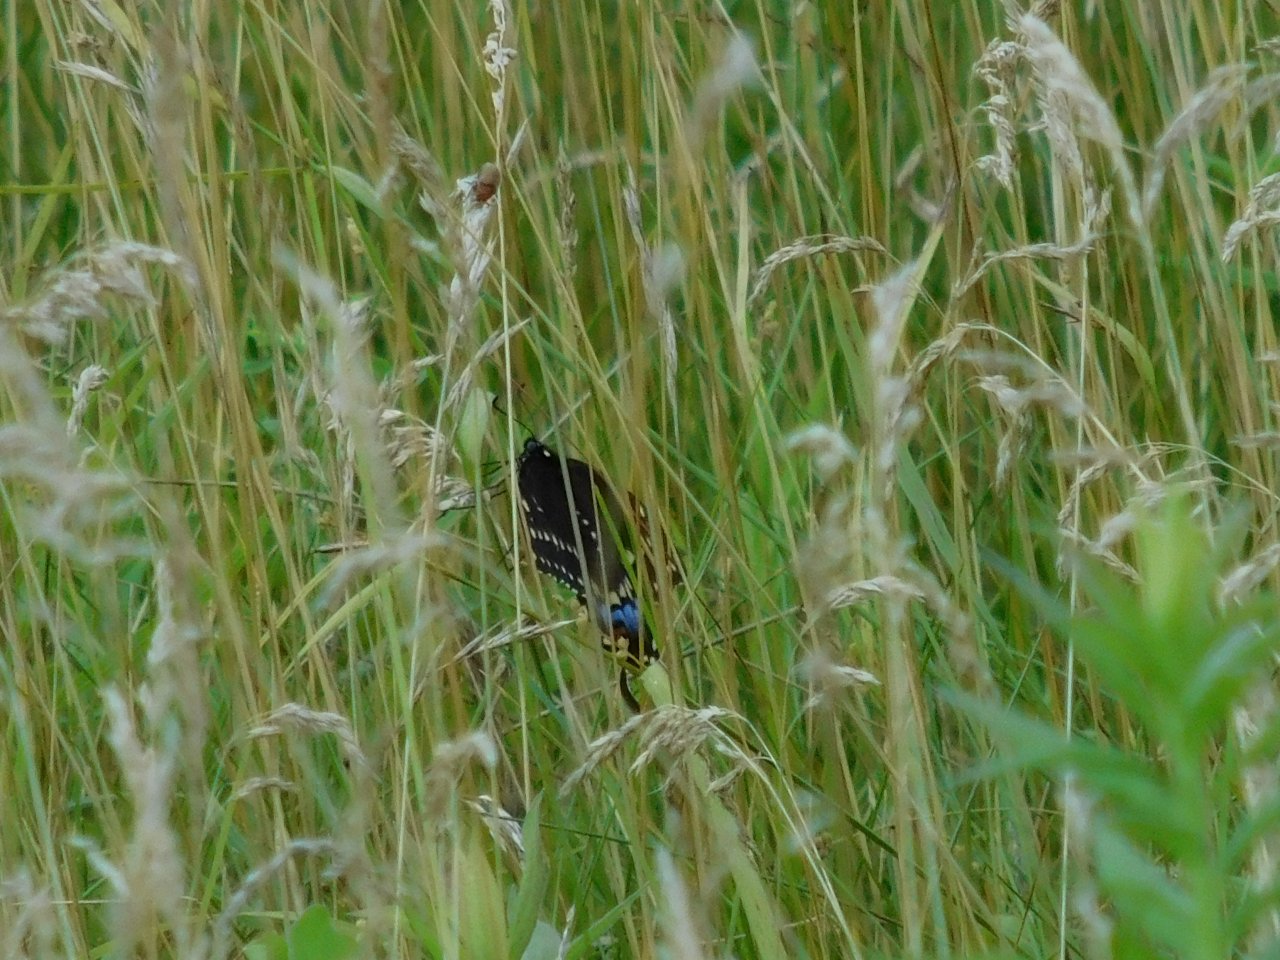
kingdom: Animalia
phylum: Arthropoda
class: Insecta
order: Lepidoptera
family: Papilionidae
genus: Papilio
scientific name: Papilio polyxenes
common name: Black Swallowtail
